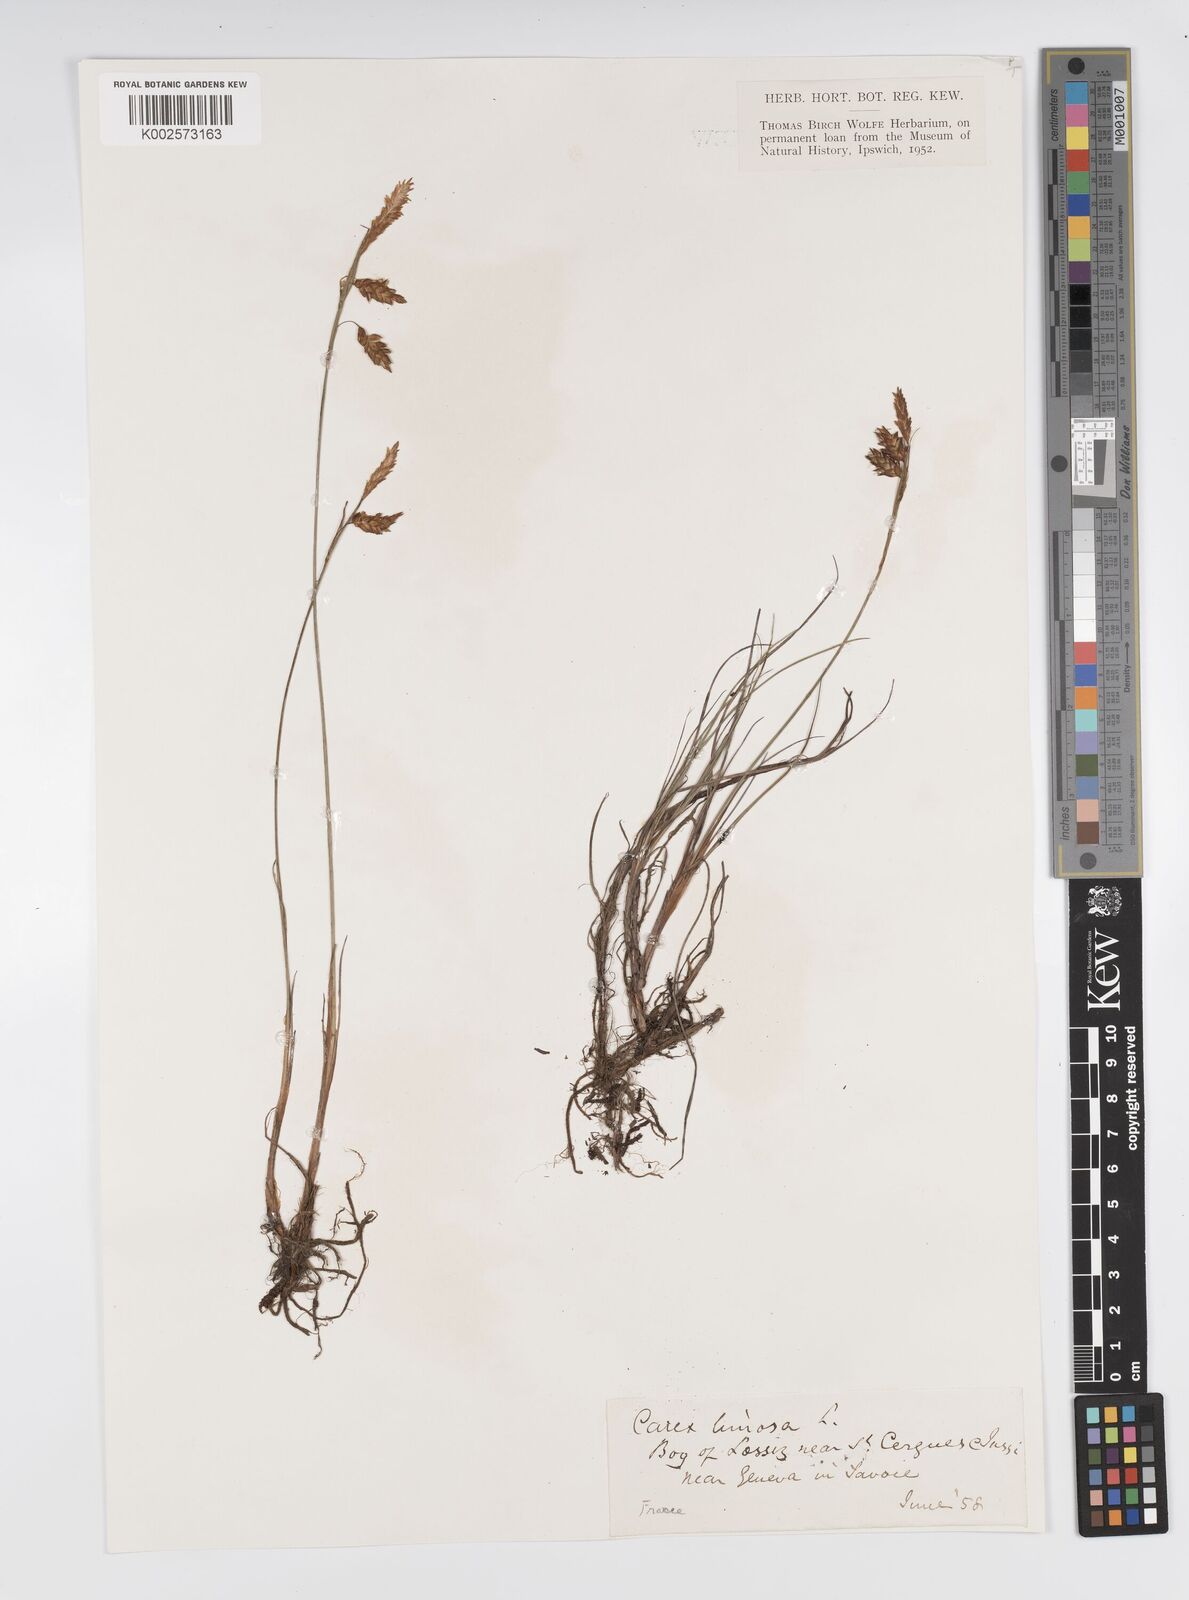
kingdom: Plantae
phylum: Tracheophyta
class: Liliopsida
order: Poales
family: Cyperaceae
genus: Carex
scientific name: Carex limosa
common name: Bog sedge
